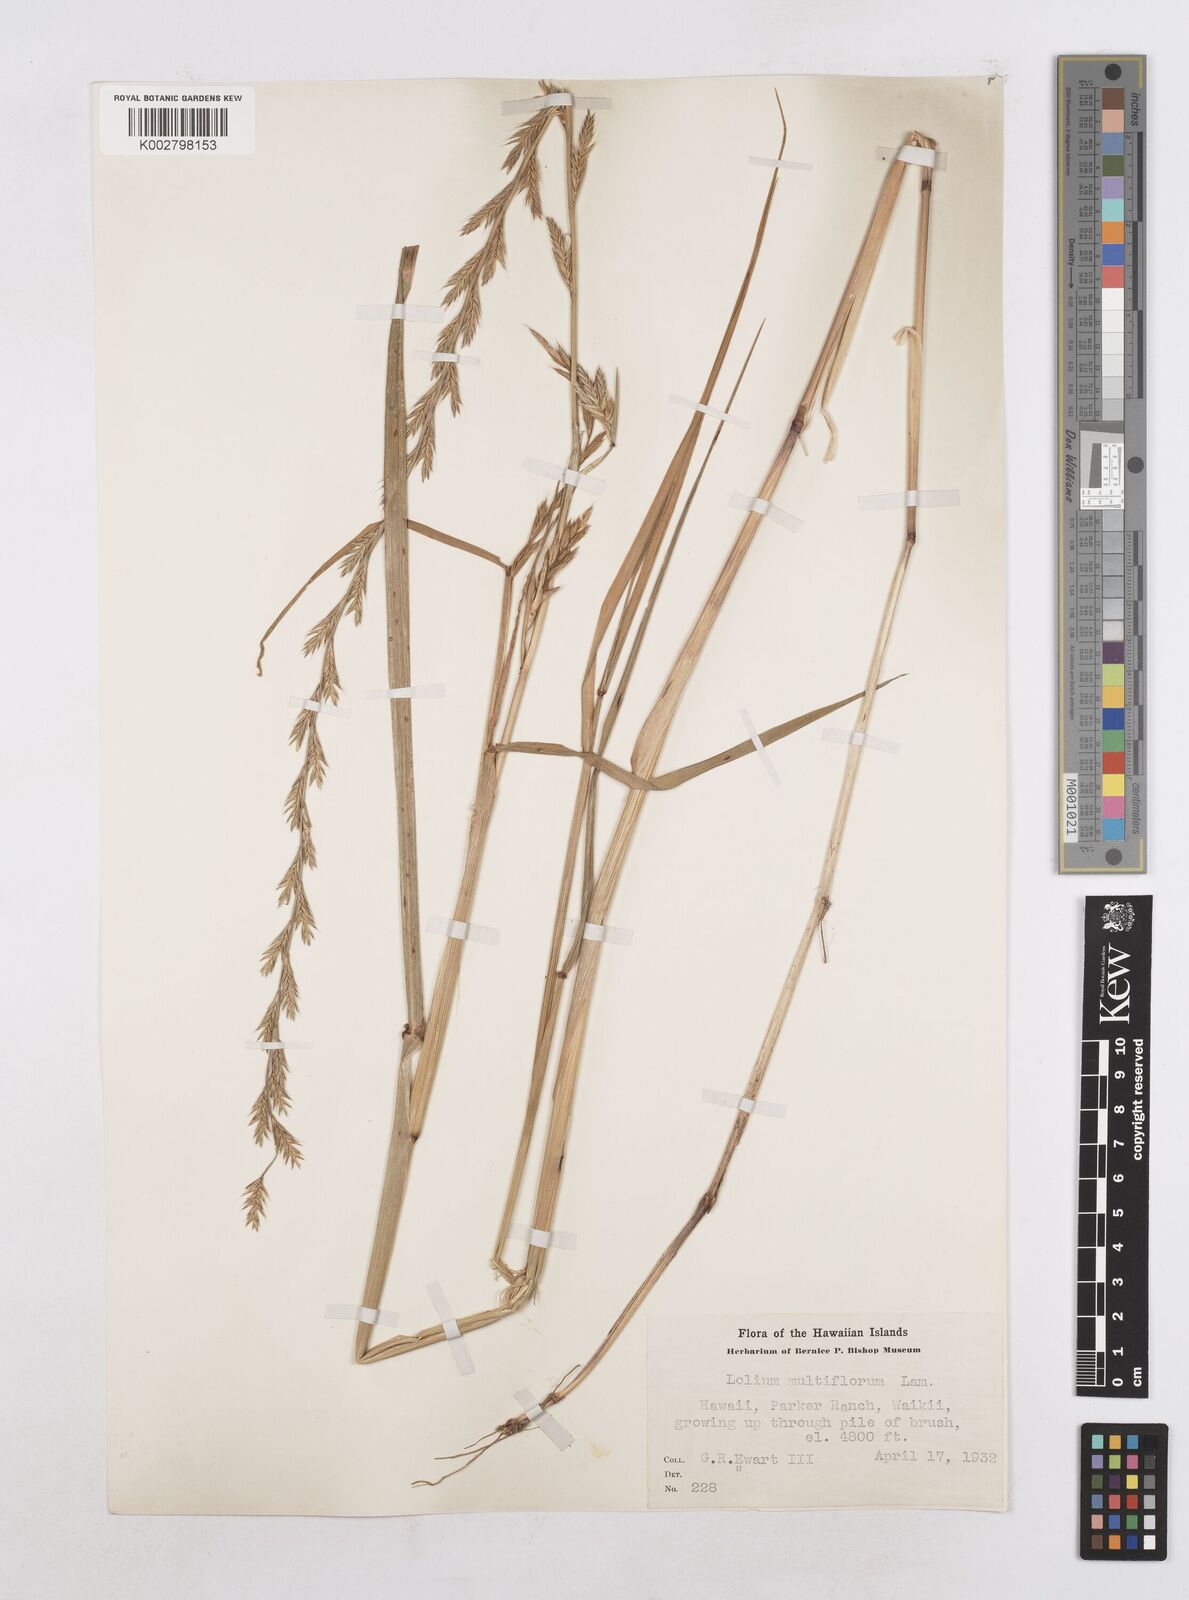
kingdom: Plantae
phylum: Tracheophyta
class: Liliopsida
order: Poales
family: Poaceae
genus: Lolium
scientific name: Lolium multiflorum
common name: Annual ryegrass
